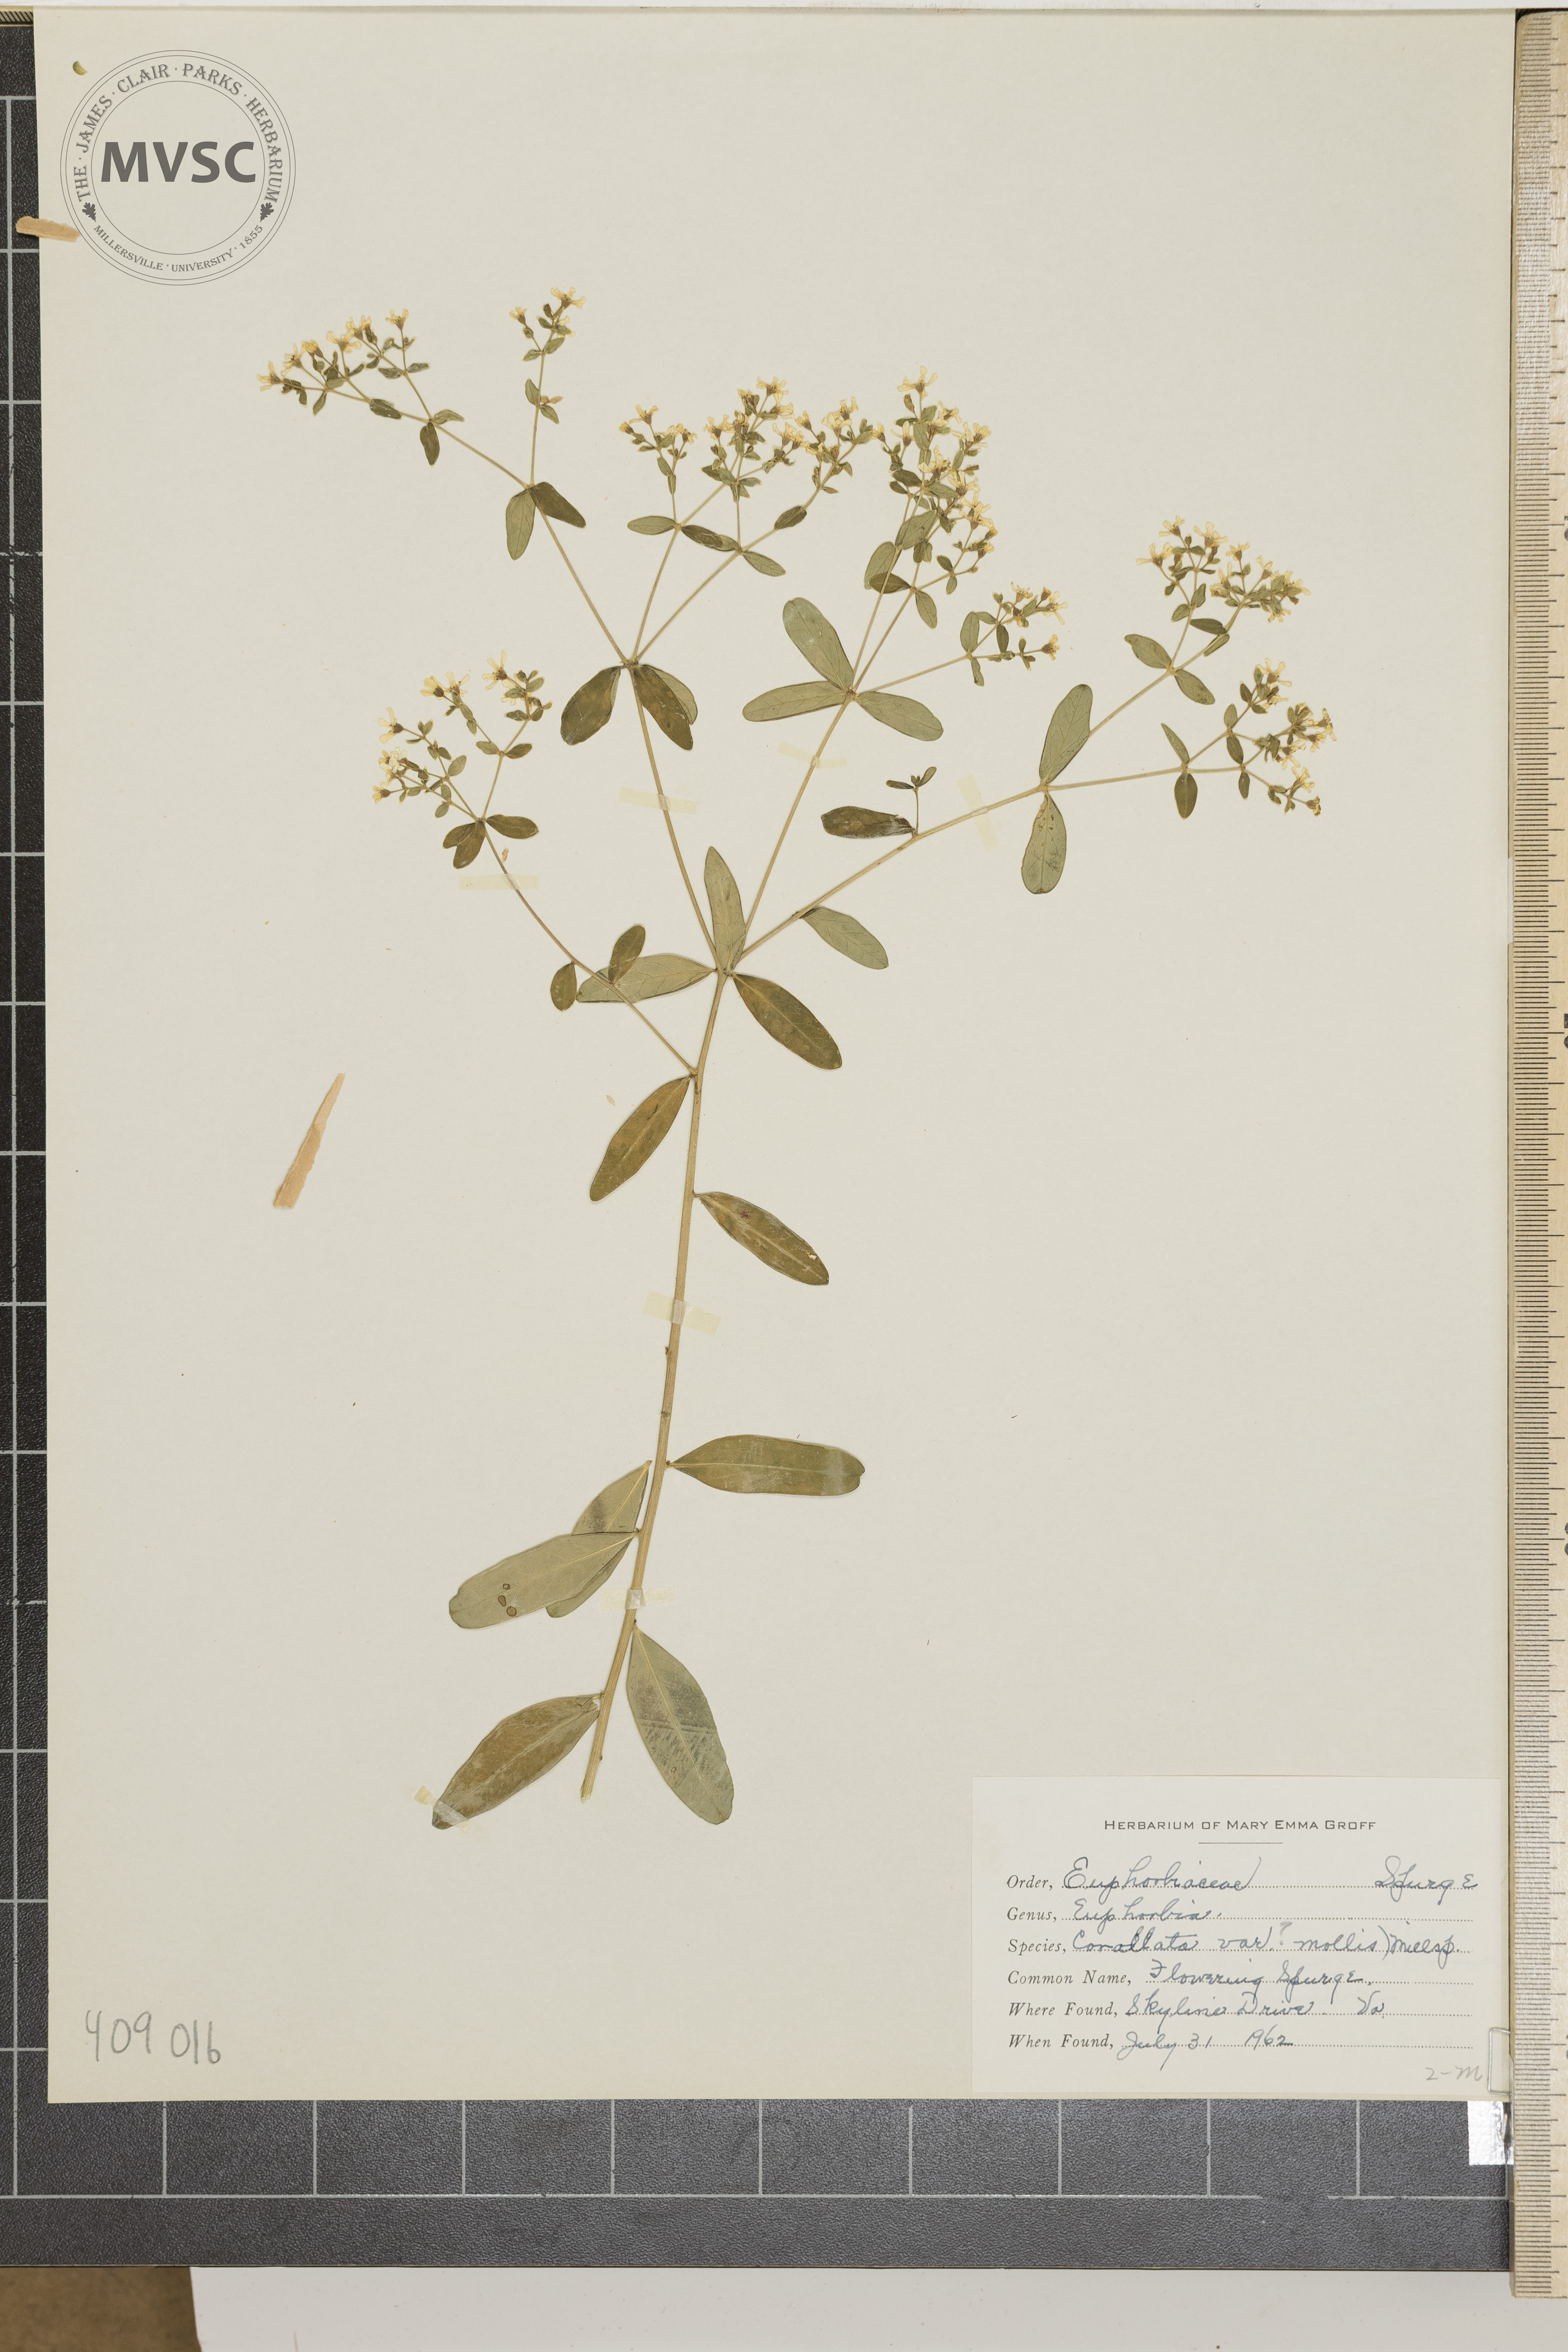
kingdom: Plantae
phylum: Tracheophyta
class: Magnoliopsida
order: Malpighiales
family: Euphorbiaceae
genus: Euphorbia
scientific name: Euphorbia corollata
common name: Flowering Spurge
